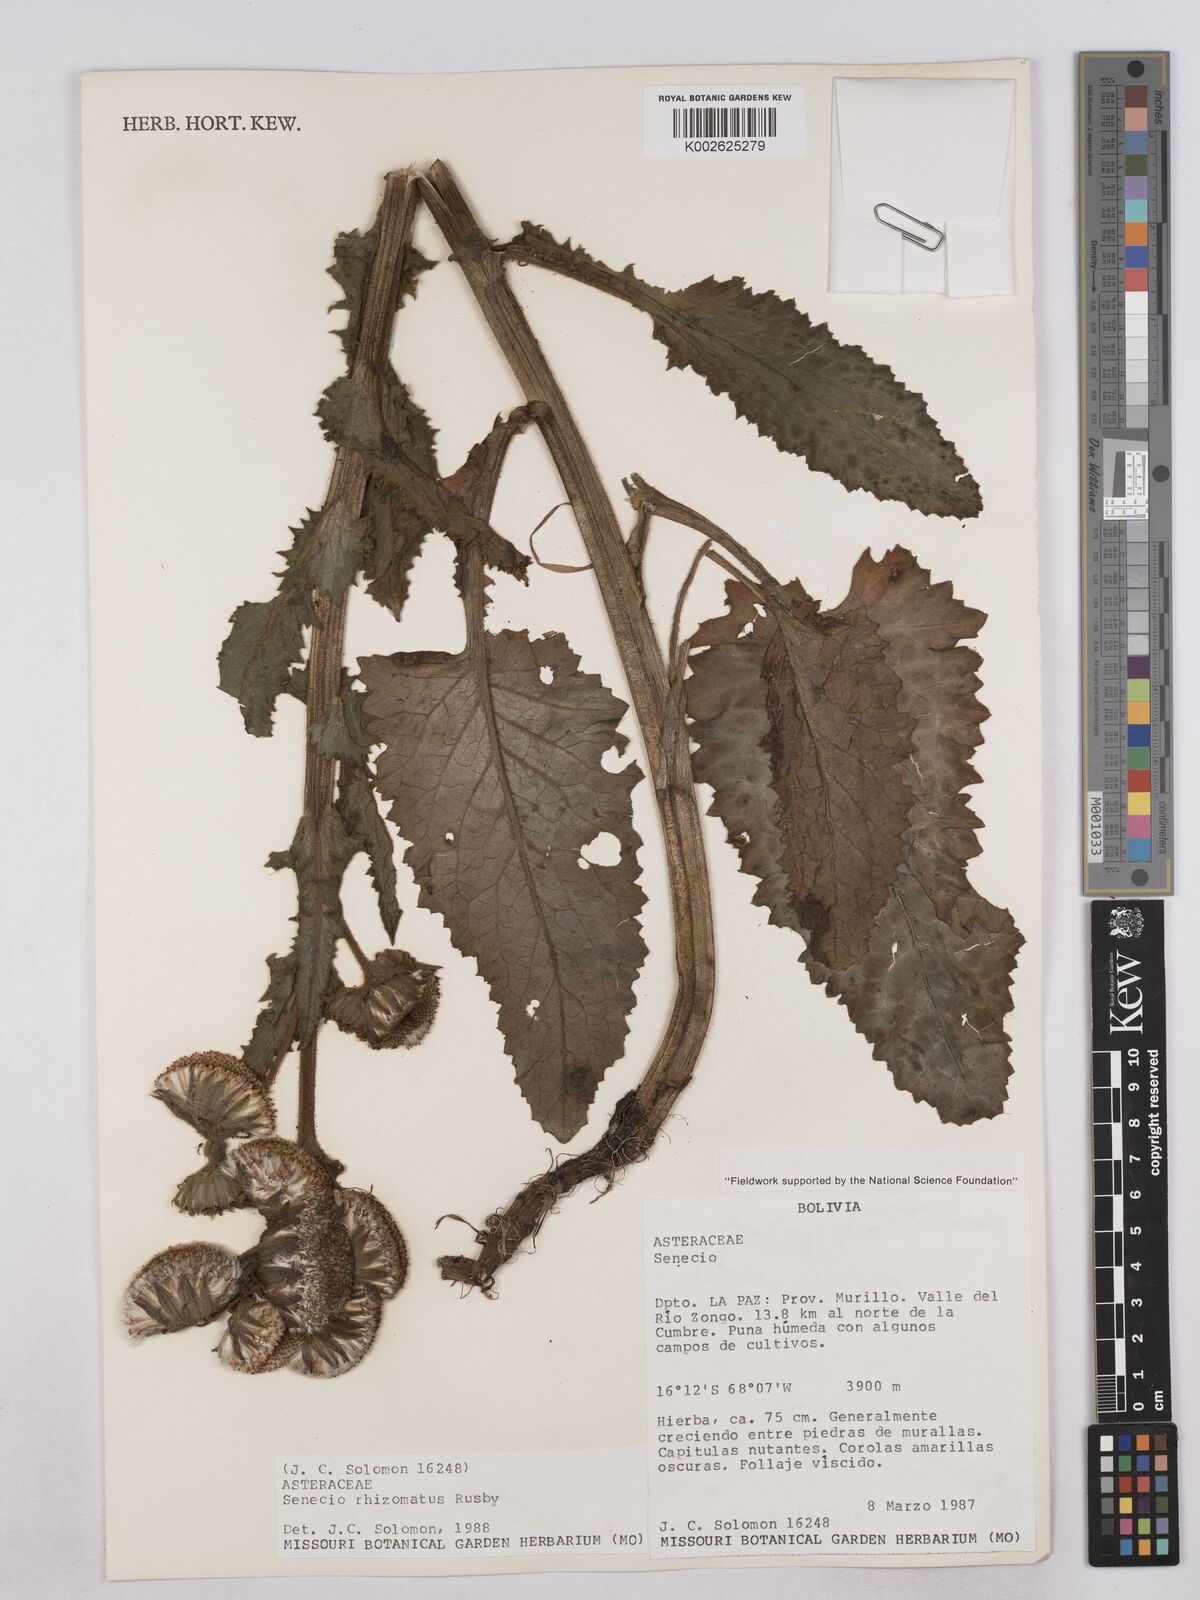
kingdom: Plantae
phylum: Tracheophyta
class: Magnoliopsida
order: Asterales
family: Asteraceae
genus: Senecio
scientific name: Senecio rhizomatus
